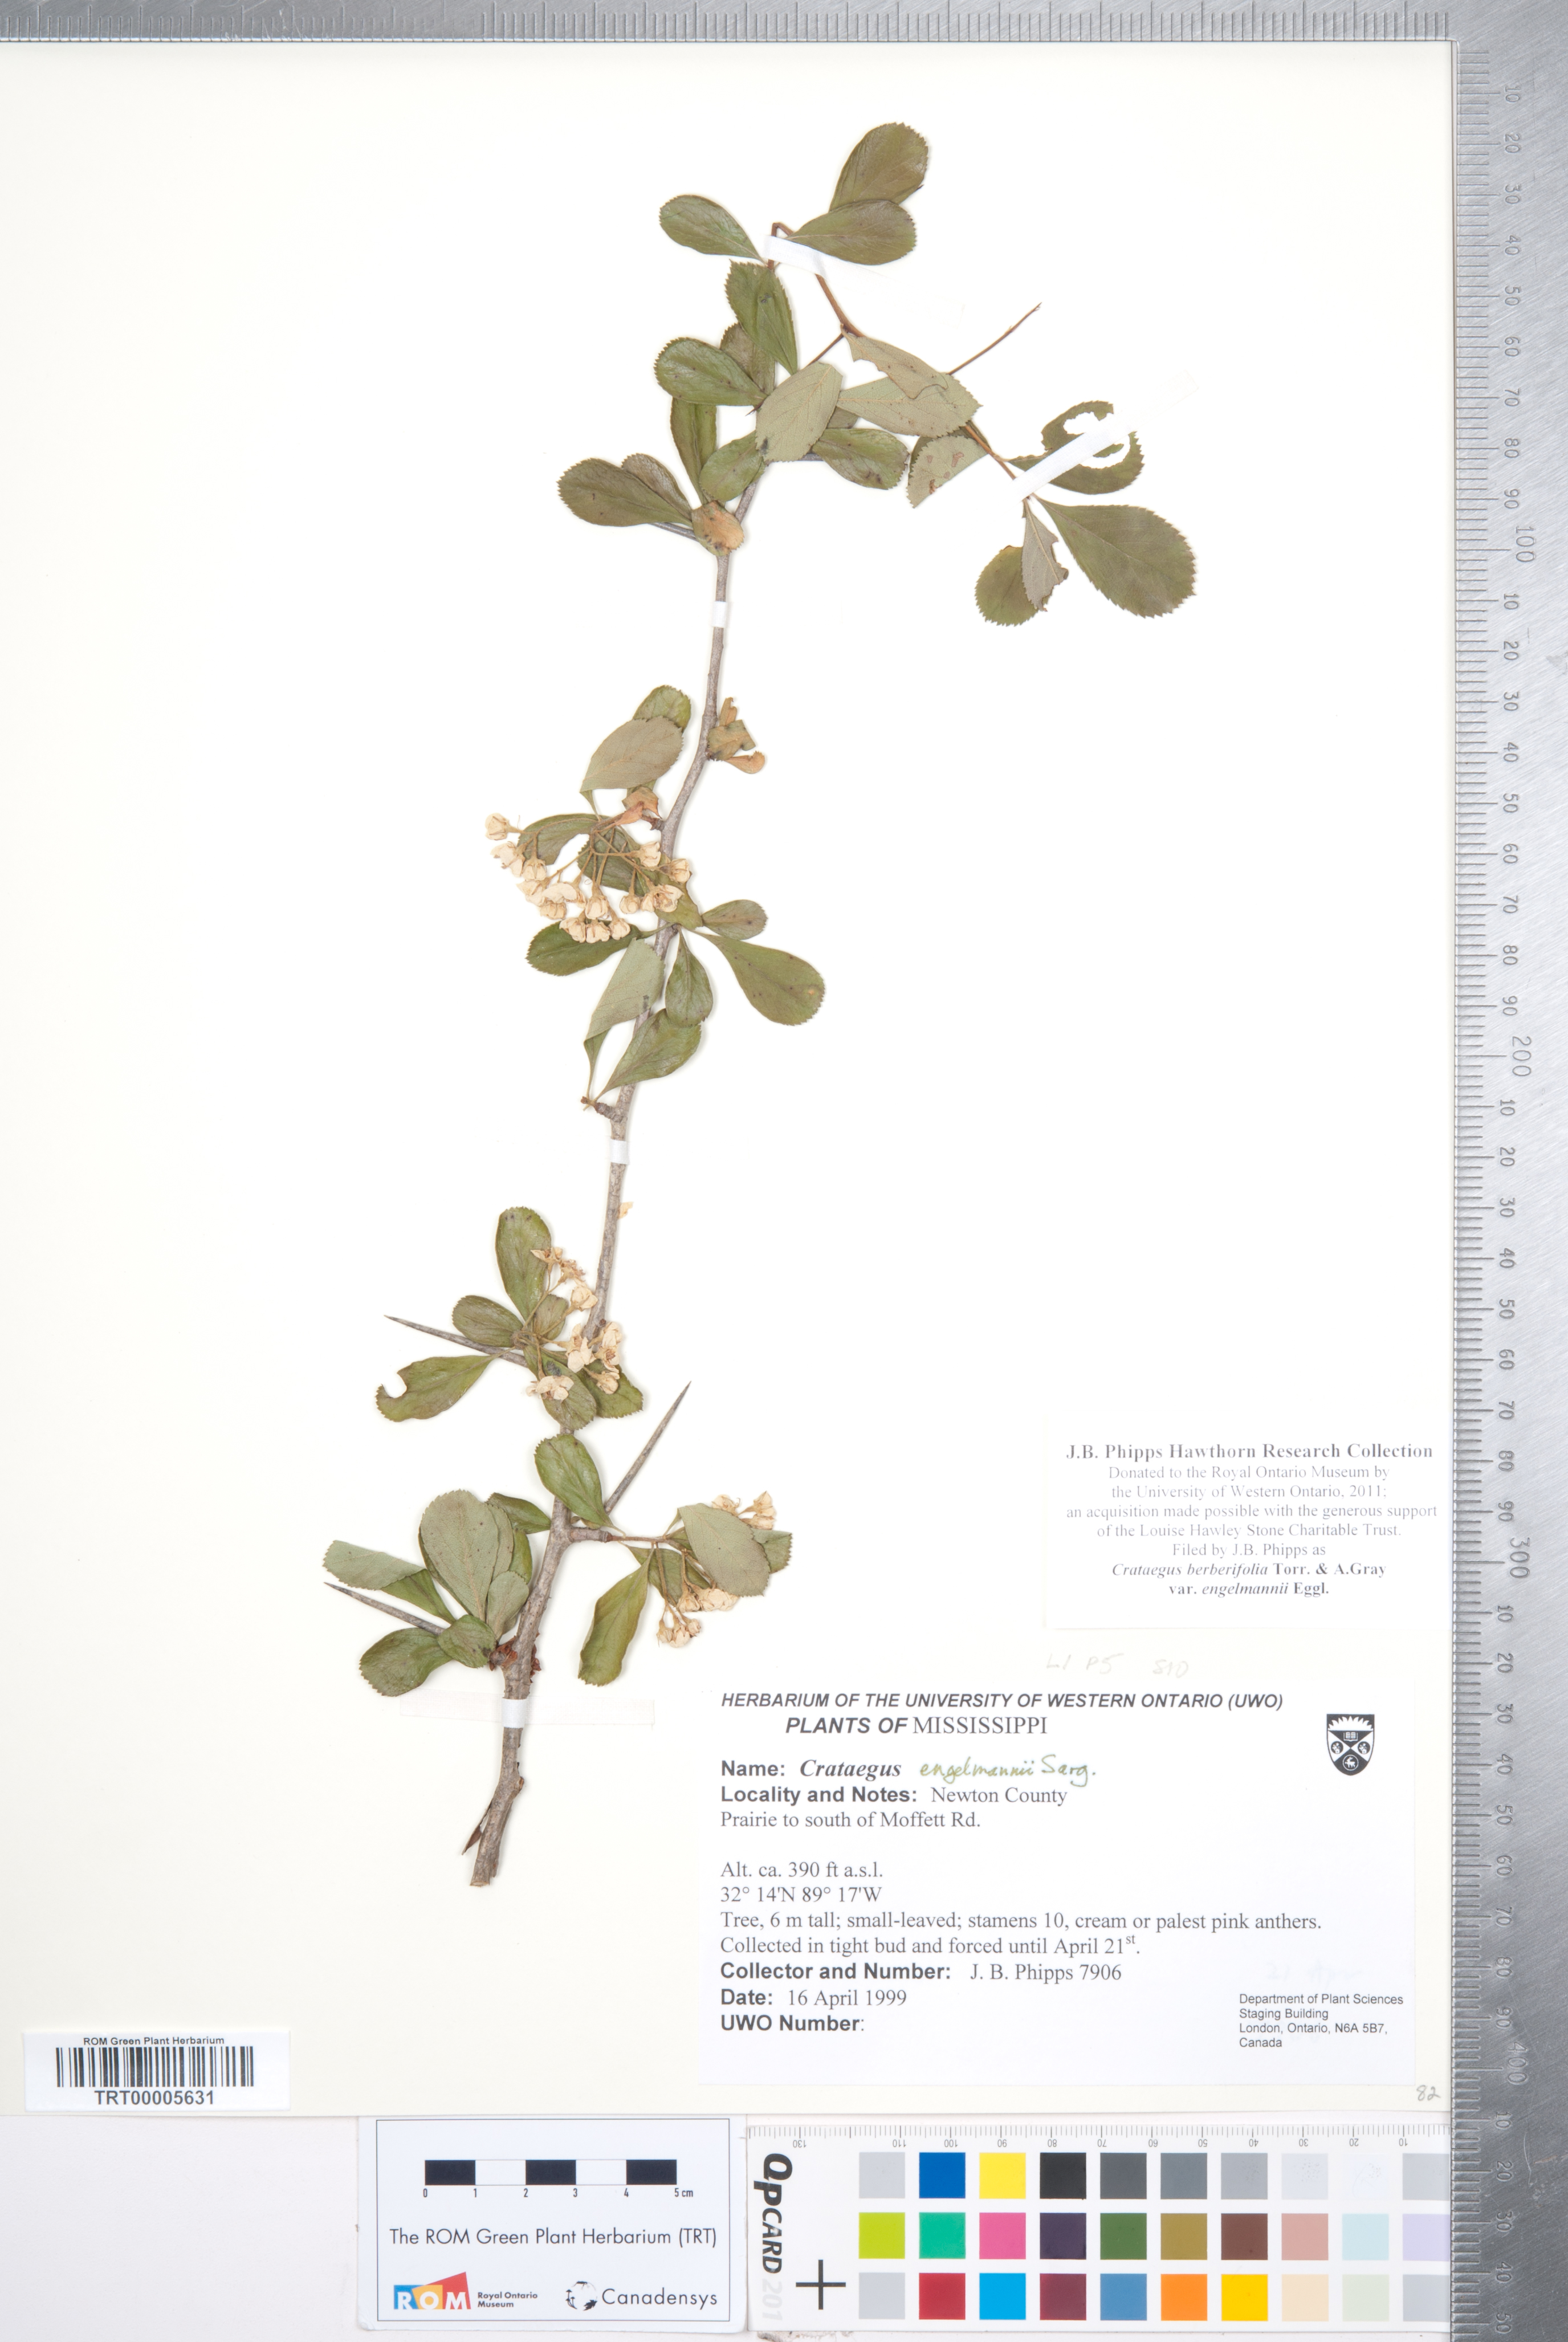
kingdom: Plantae
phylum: Tracheophyta
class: Magnoliopsida
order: Rosales
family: Rosaceae
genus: Crataegus
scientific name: Crataegus berberifolia
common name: Barberry hawthorn
